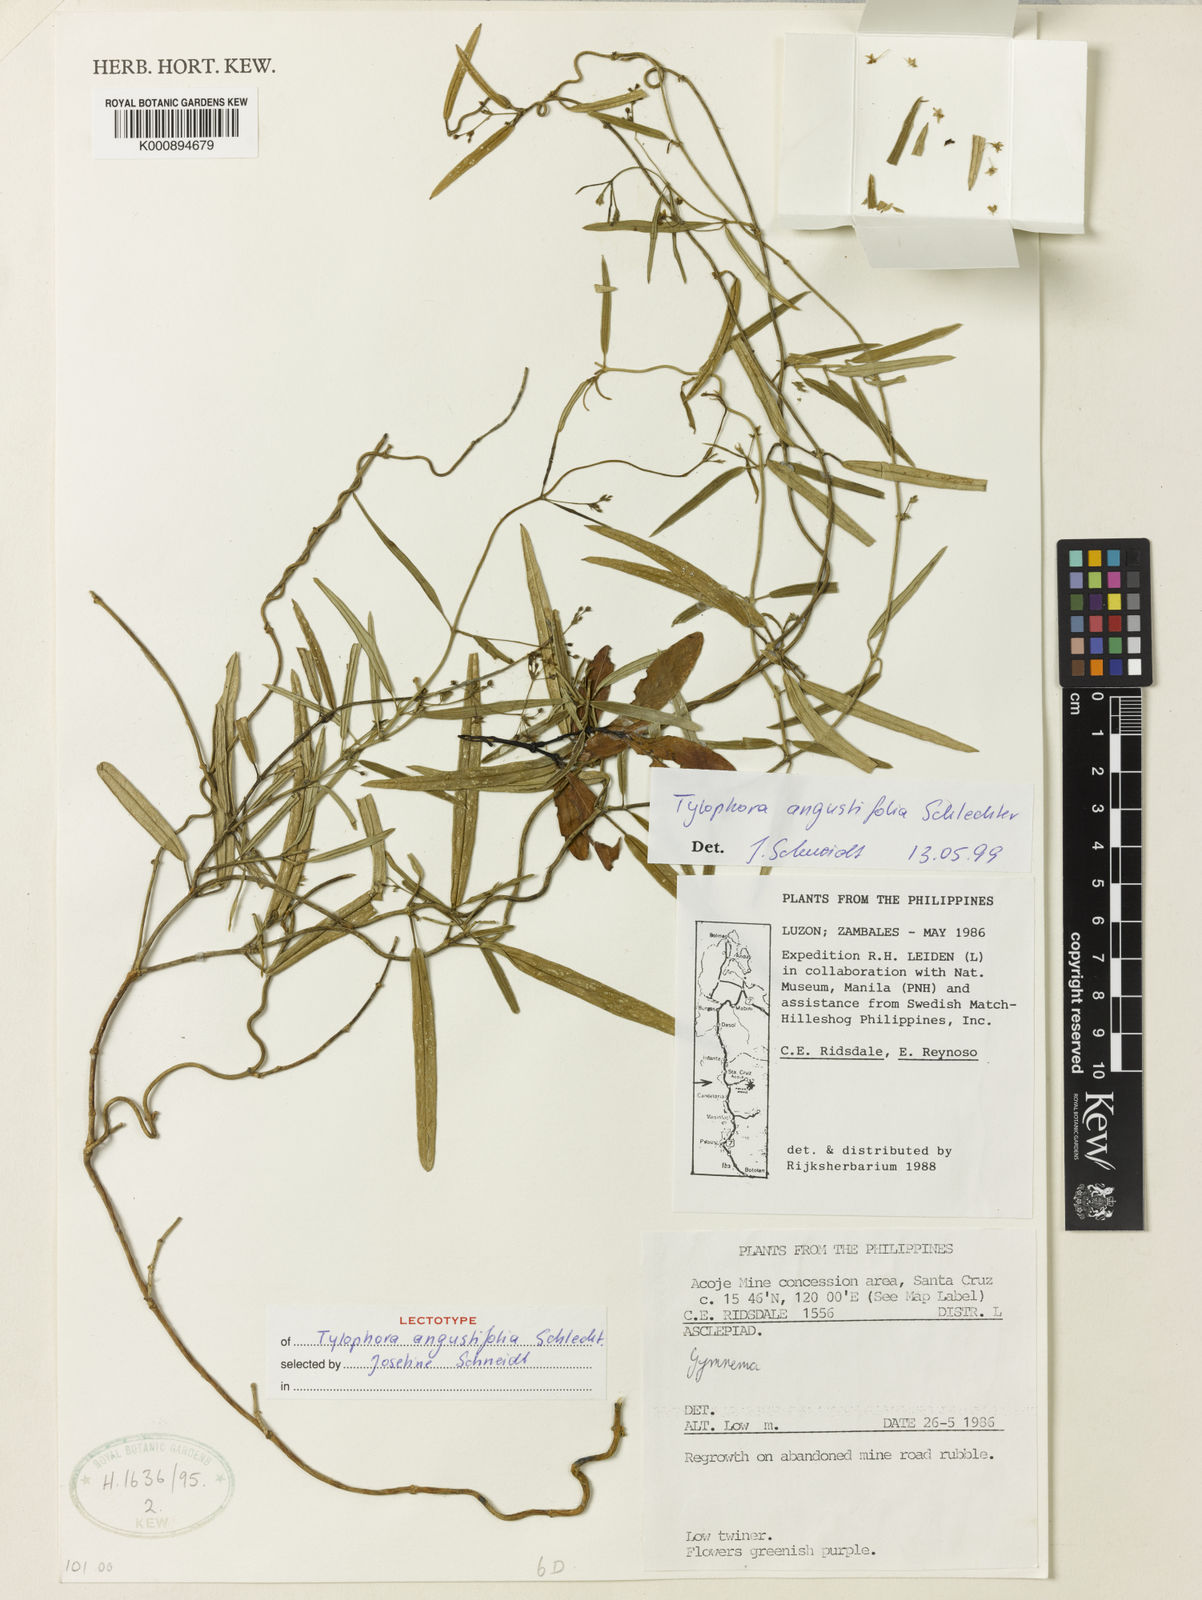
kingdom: Plantae
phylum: Tracheophyta
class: Magnoliopsida
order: Gentianales
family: Apocynaceae
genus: Vincetoxicum
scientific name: Vincetoxicum angustifolium
